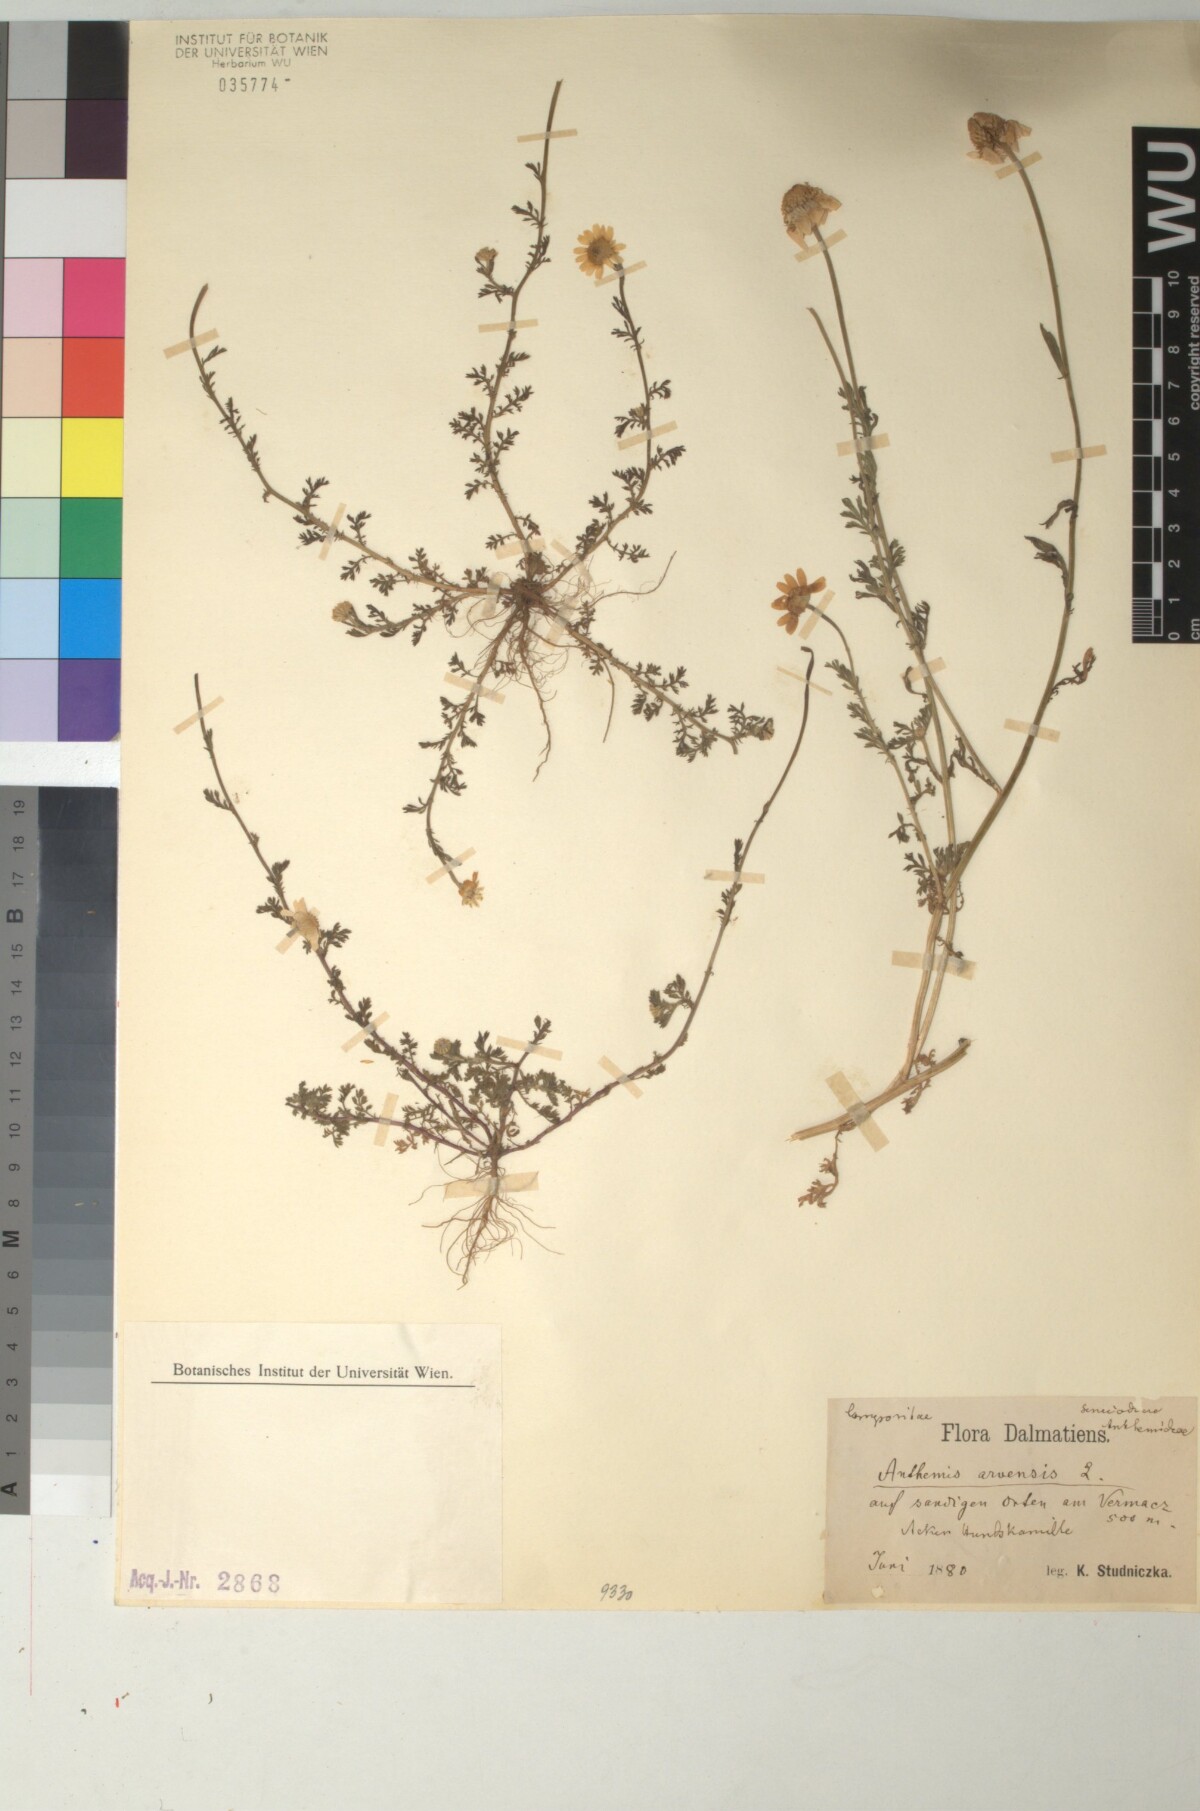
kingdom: Plantae
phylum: Tracheophyta
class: Magnoliopsida
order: Asterales
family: Asteraceae
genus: Anthemis
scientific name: Anthemis arvensis
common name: Corn chamomile
